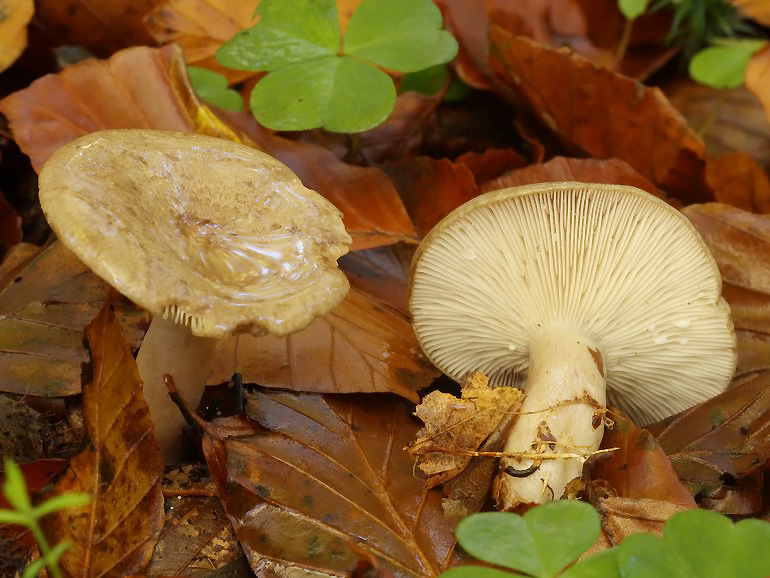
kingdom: Fungi
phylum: Basidiomycota
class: Agaricomycetes
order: Russulales
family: Russulaceae
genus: Lactarius
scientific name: Lactarius blennius
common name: dråbeplettet mælkehat
